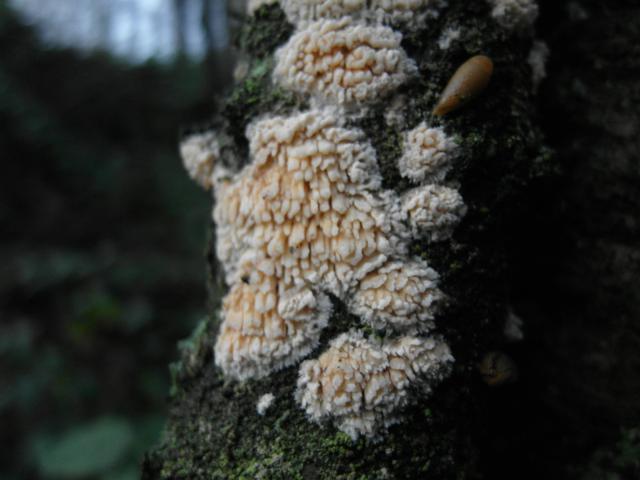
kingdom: Fungi
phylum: Basidiomycota
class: Agaricomycetes
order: Hymenochaetales
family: Schizoporaceae
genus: Xylodon
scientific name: Xylodon radula
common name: grovtandet kalkskind
